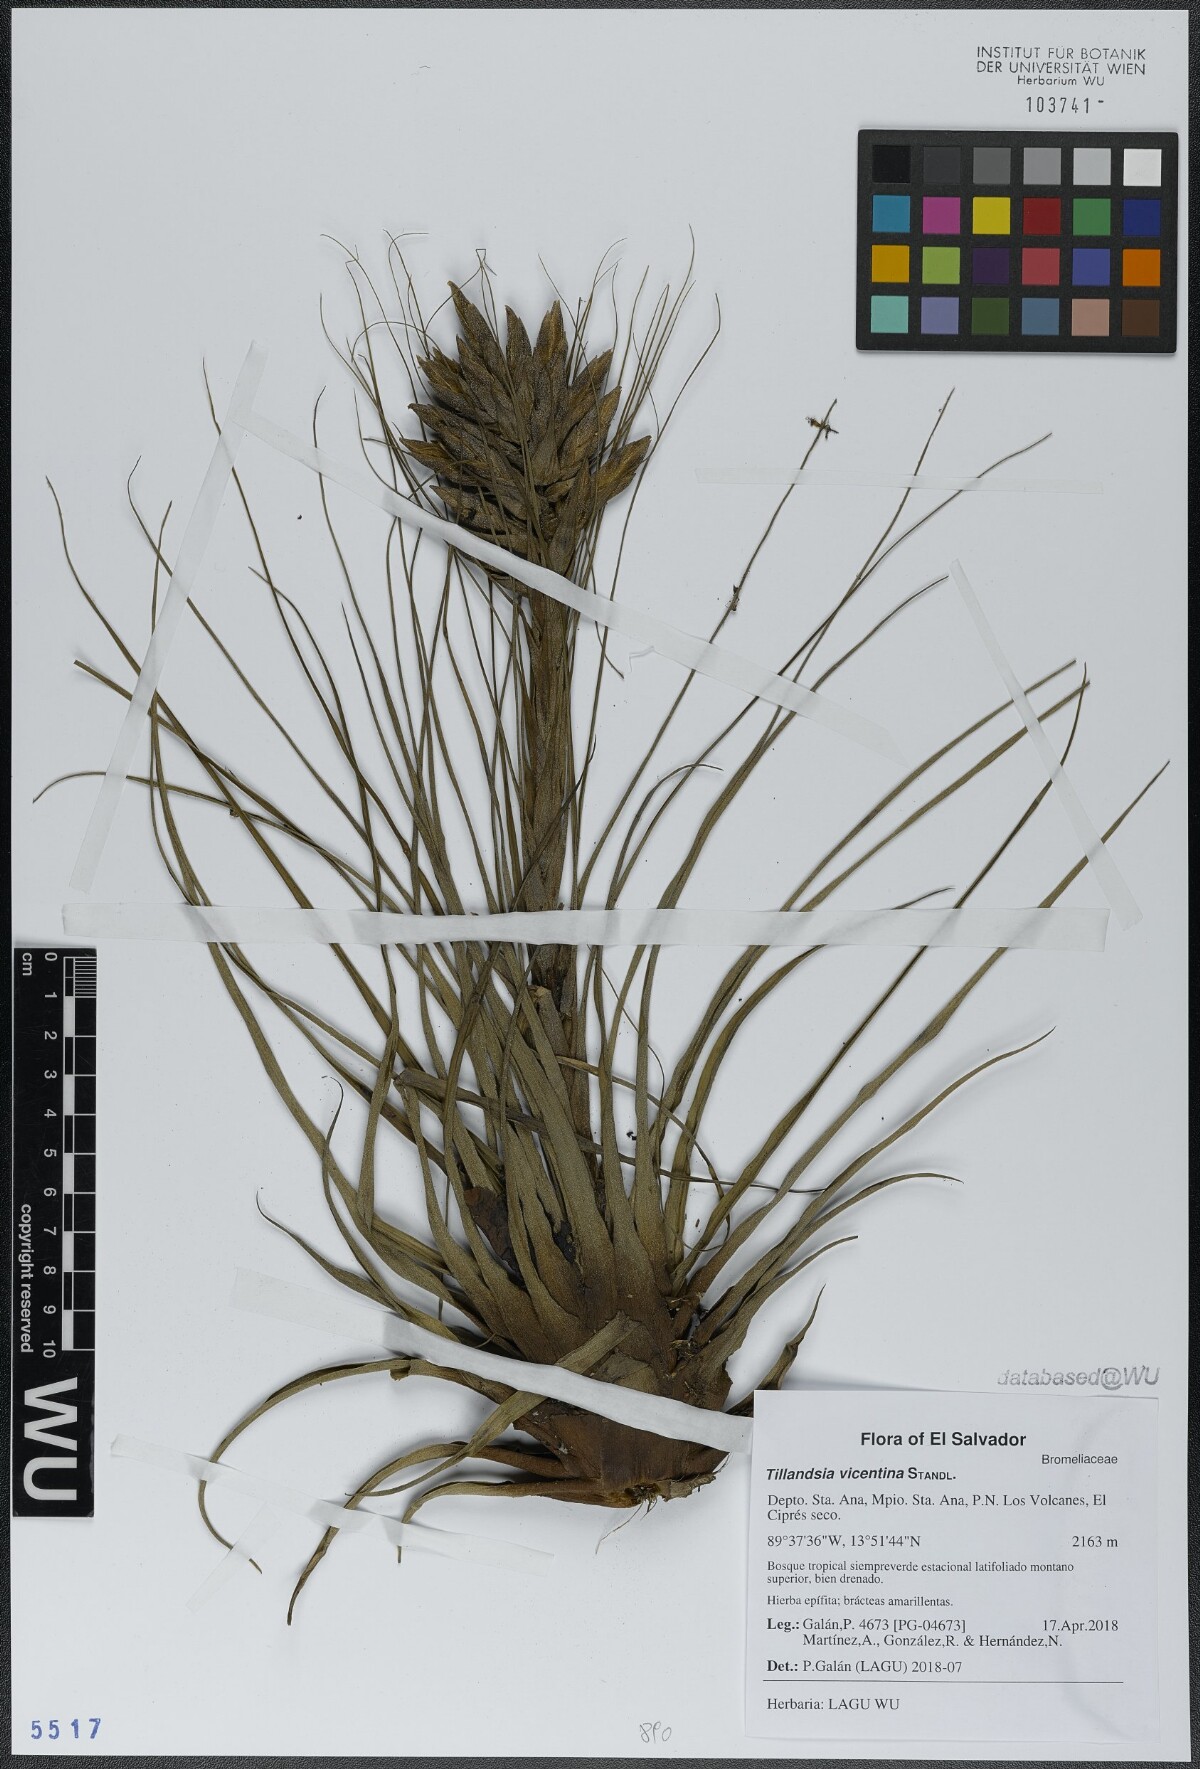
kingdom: Plantae
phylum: Tracheophyta
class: Liliopsida
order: Poales
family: Bromeliaceae
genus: Tillandsia
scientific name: Tillandsia vicentina
